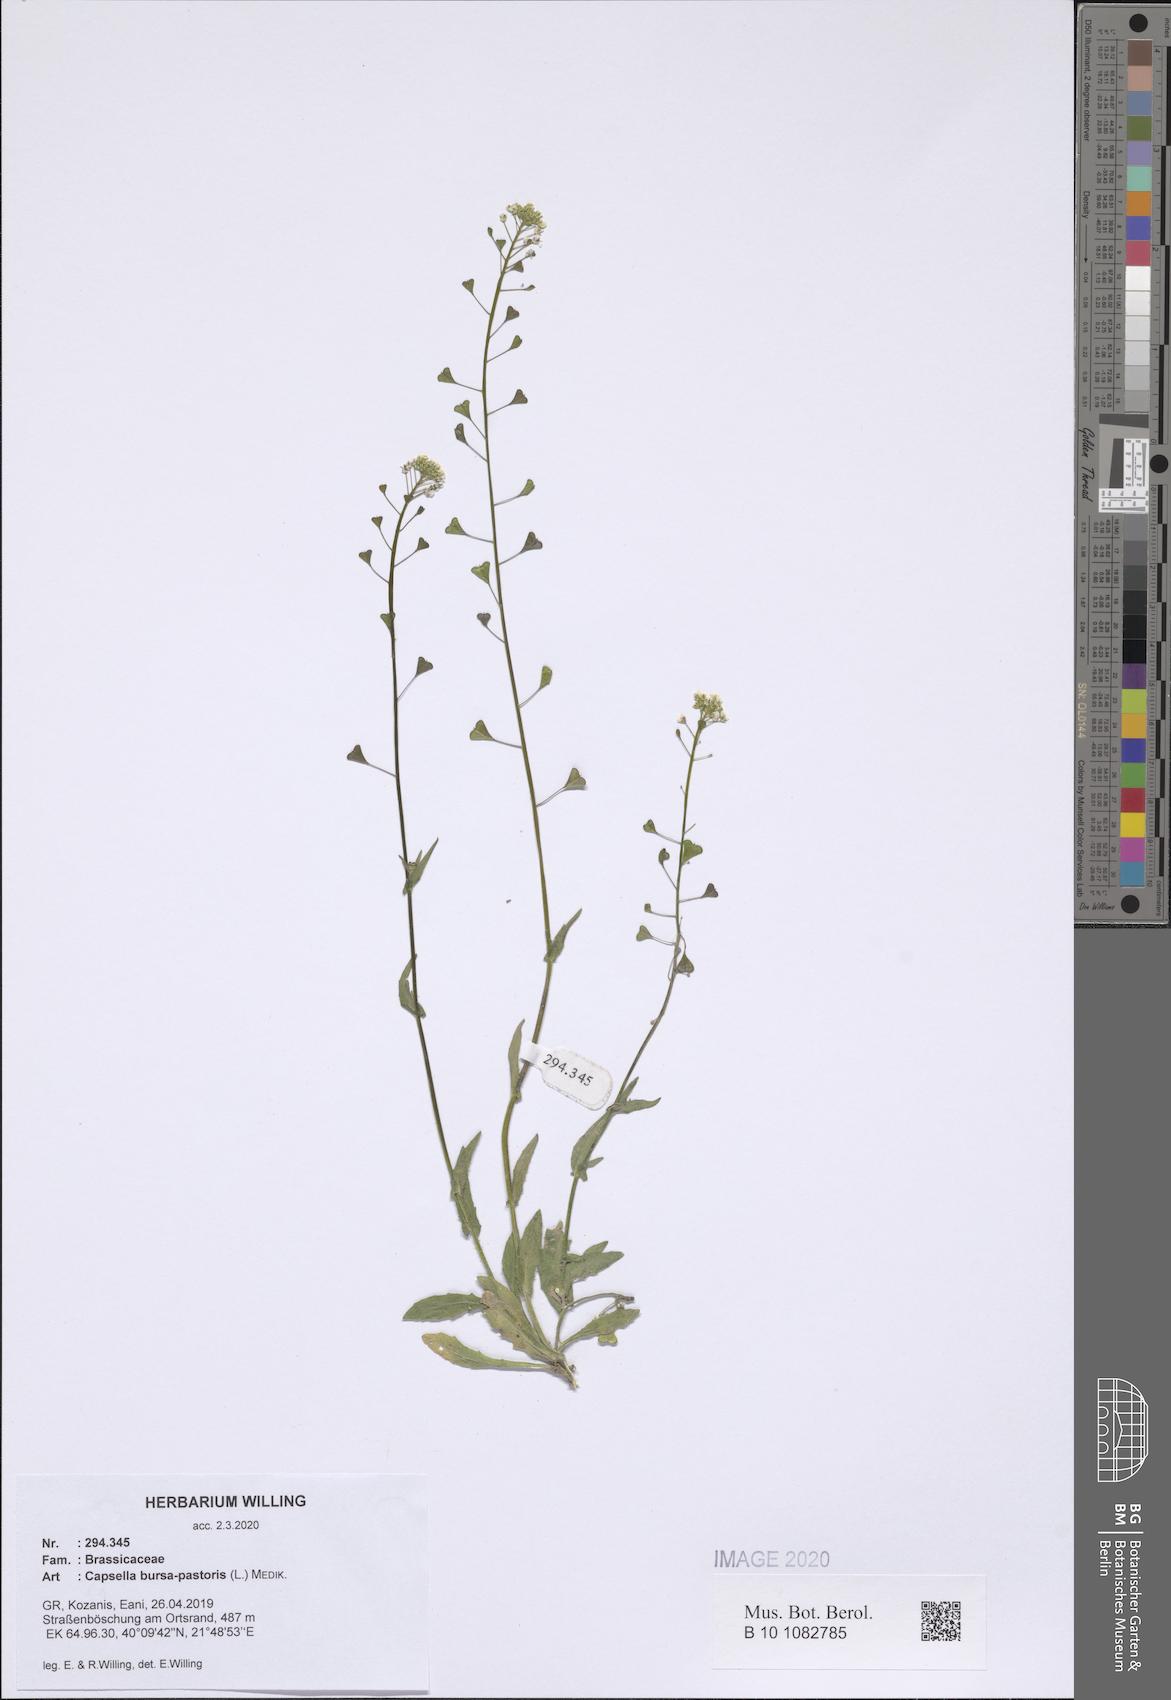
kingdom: Plantae
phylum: Tracheophyta
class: Magnoliopsida
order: Brassicales
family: Brassicaceae
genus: Capsella
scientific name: Capsella bursa-pastoris
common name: Shepherd's purse
